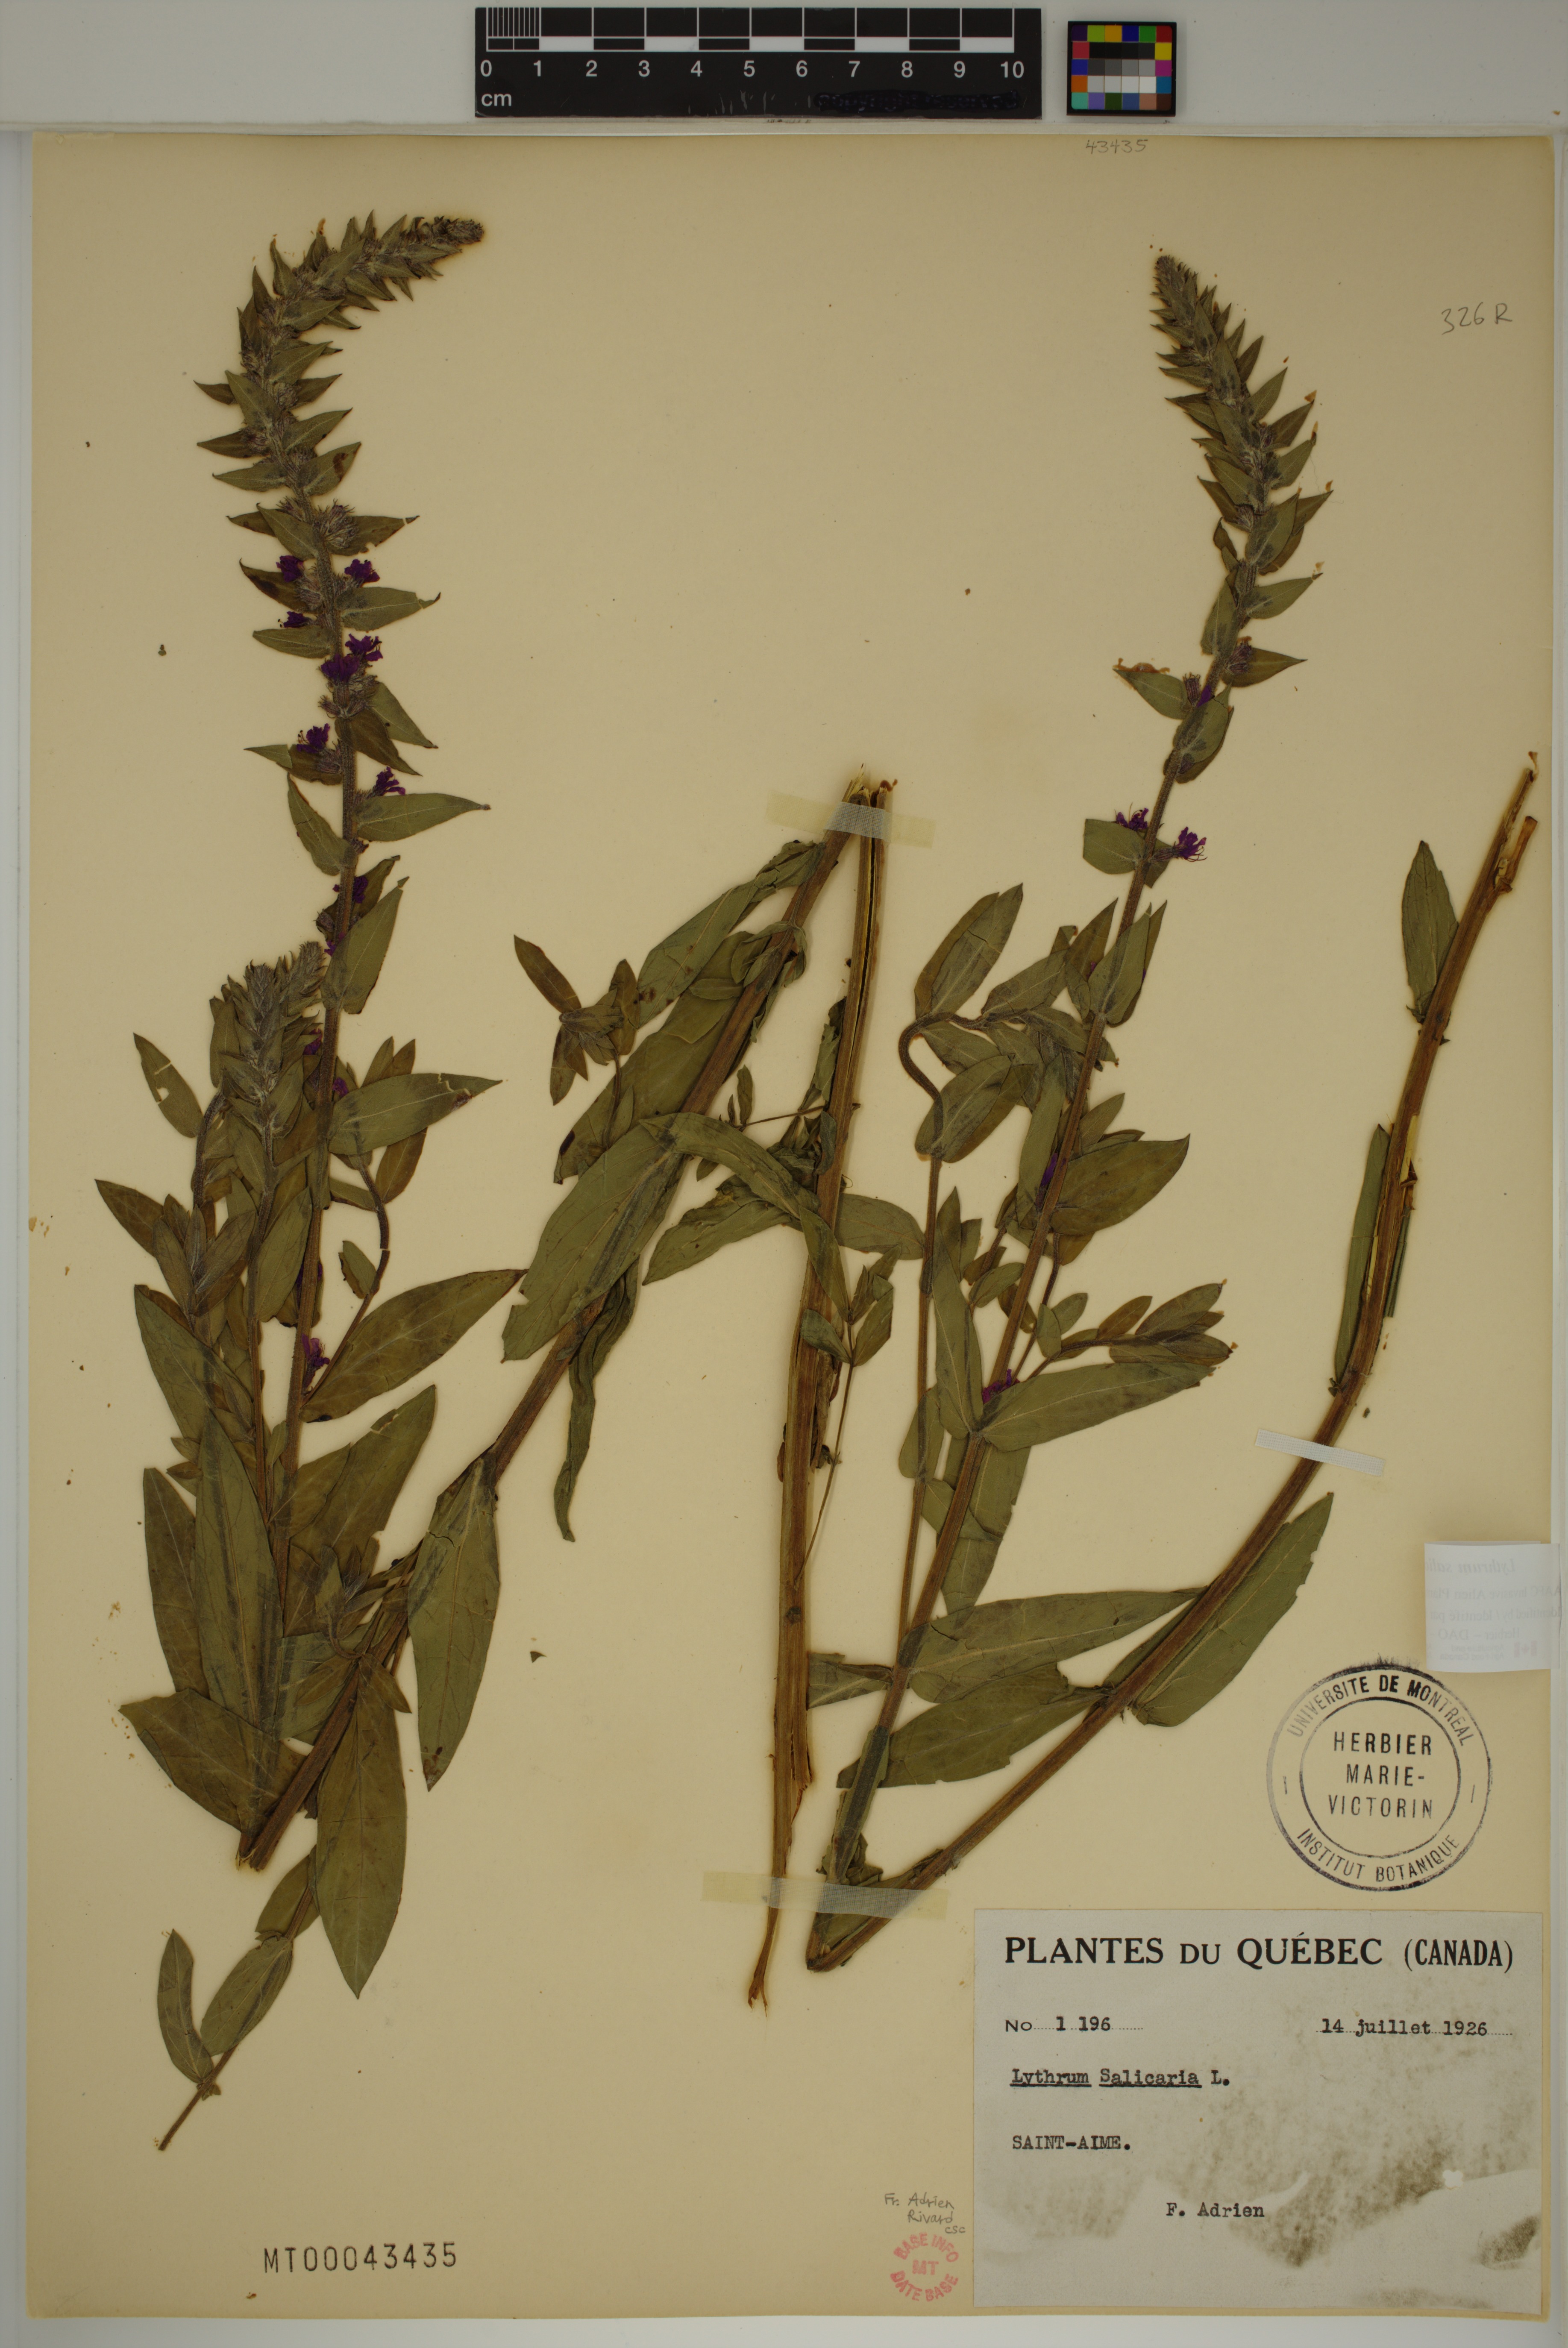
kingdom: Plantae
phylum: Tracheophyta
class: Magnoliopsida
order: Myrtales
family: Lythraceae
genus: Lythrum
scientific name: Lythrum salicaria
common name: Purple loosestrife
